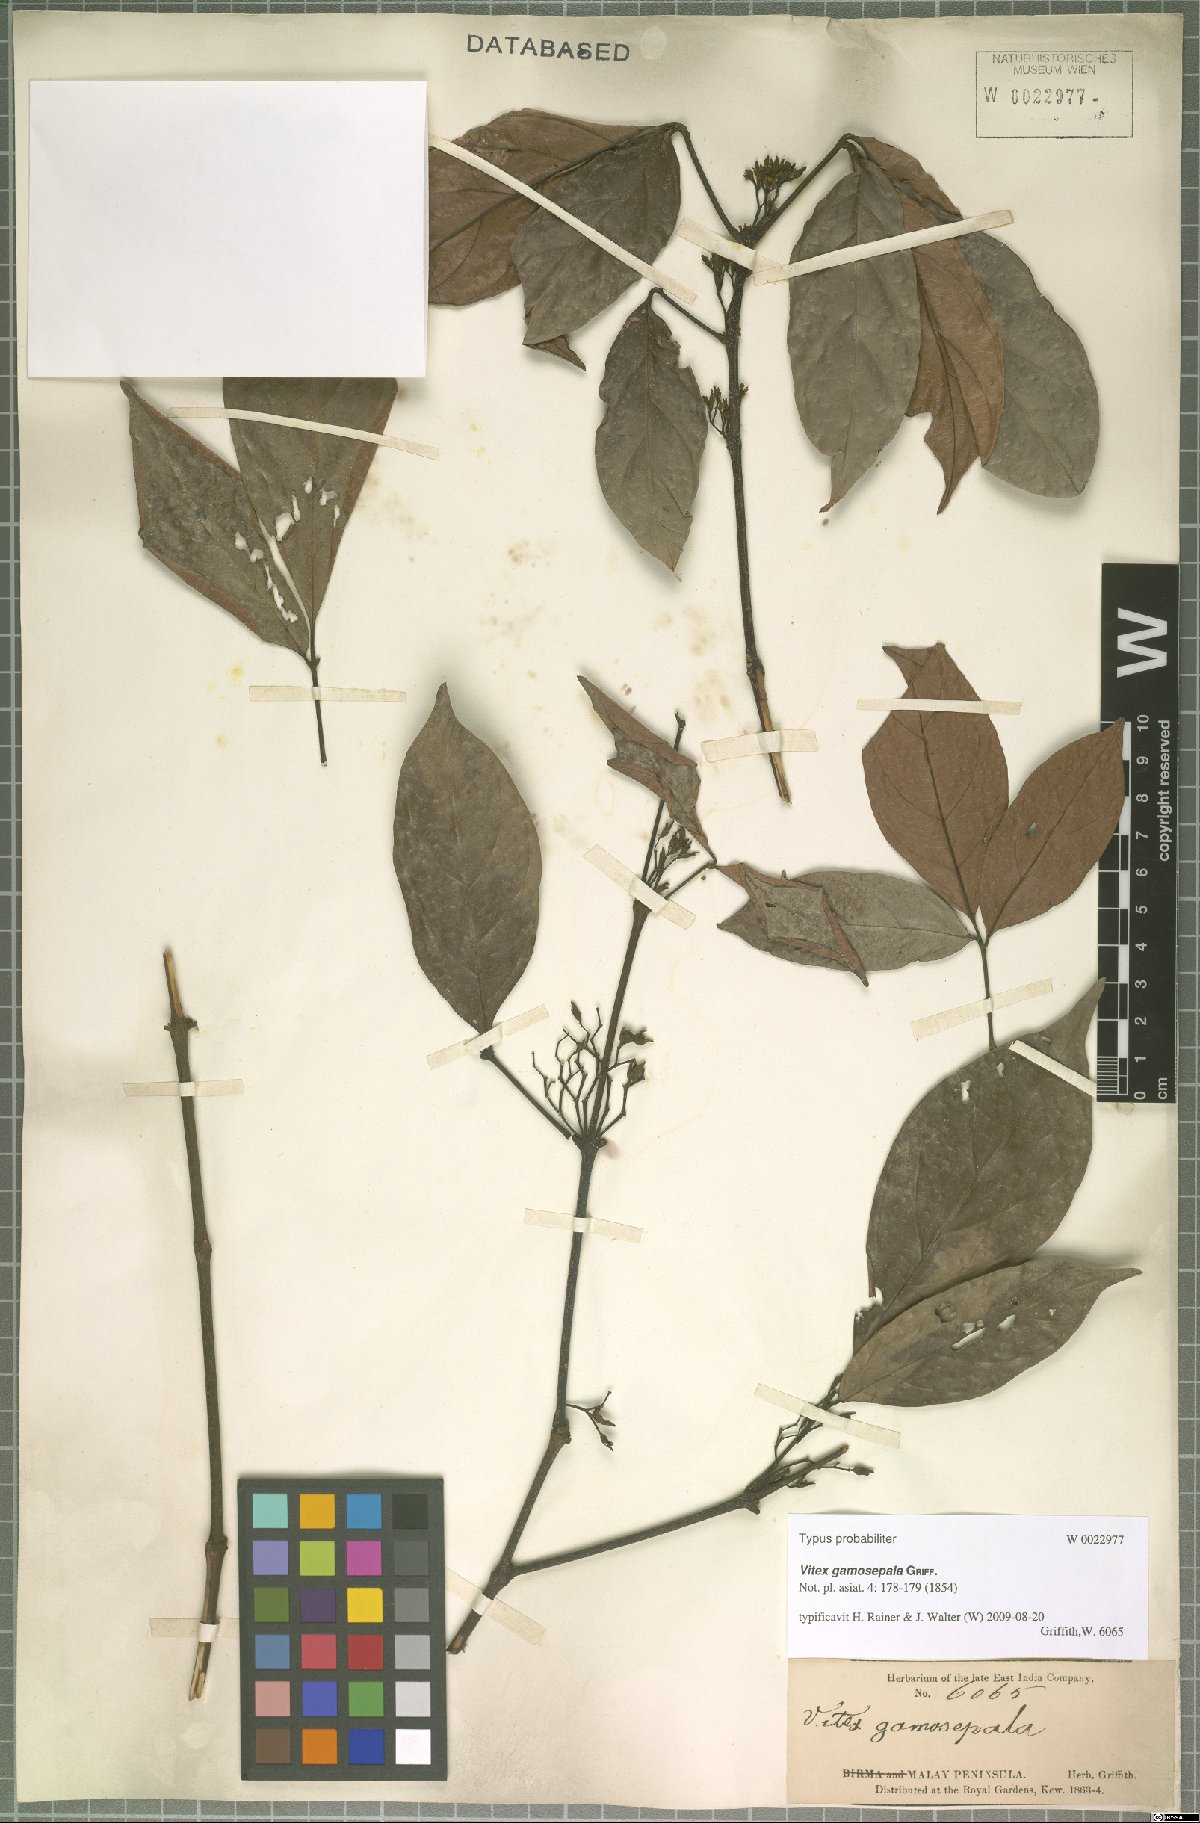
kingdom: Plantae
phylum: Tracheophyta
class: Magnoliopsida
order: Lamiales
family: Lamiaceae
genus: Vitex
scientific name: Vitex gamosepala
